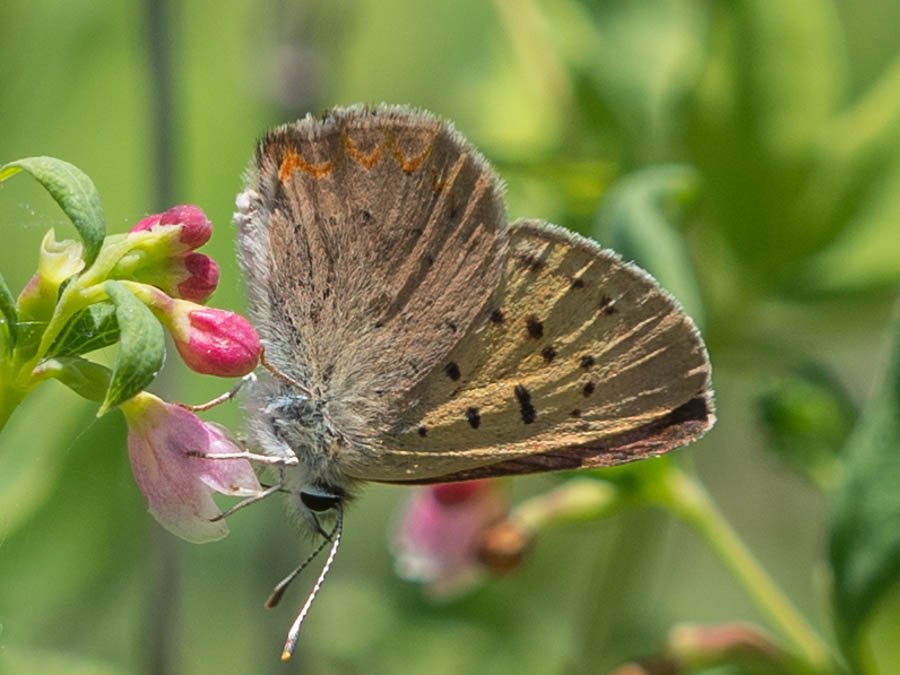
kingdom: Animalia
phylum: Arthropoda
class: Insecta
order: Lepidoptera
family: Sesiidae
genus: Sesia
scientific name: Sesia Lycaena helloides
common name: Purplish Copper
